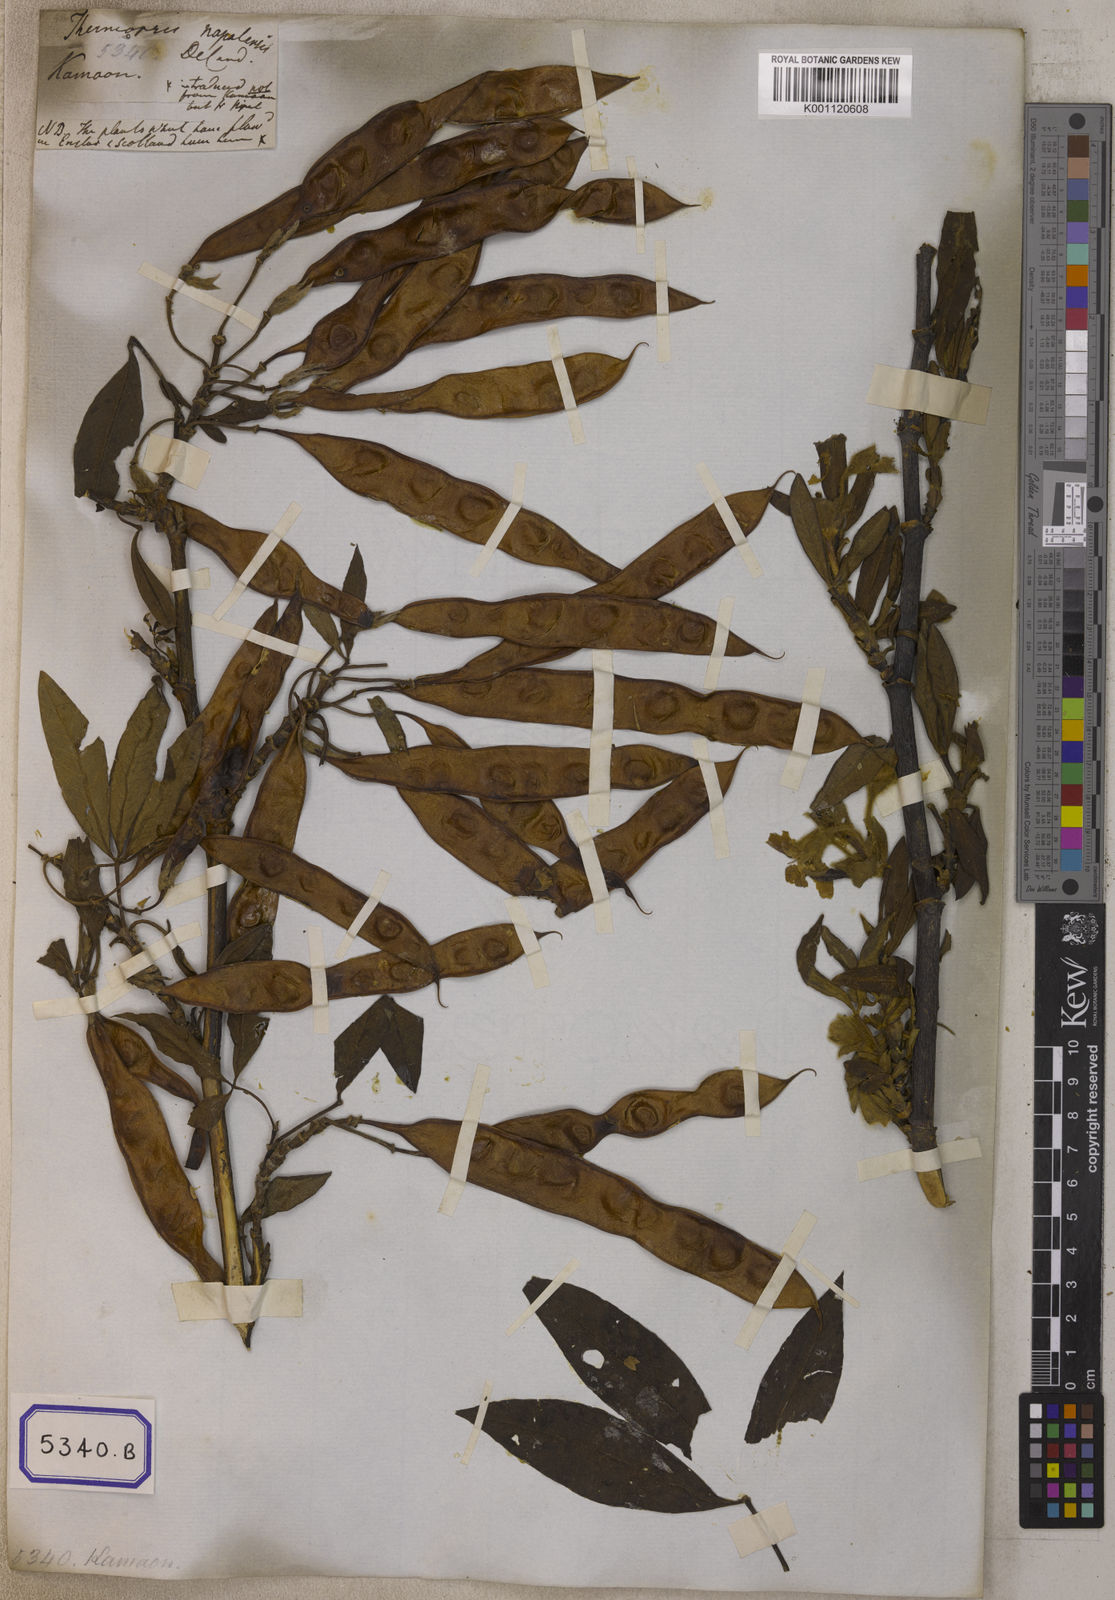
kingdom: Plantae
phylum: Tracheophyta
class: Magnoliopsida
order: Fabales
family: Fabaceae
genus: Piptanthus
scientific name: Piptanthus nepalensis
